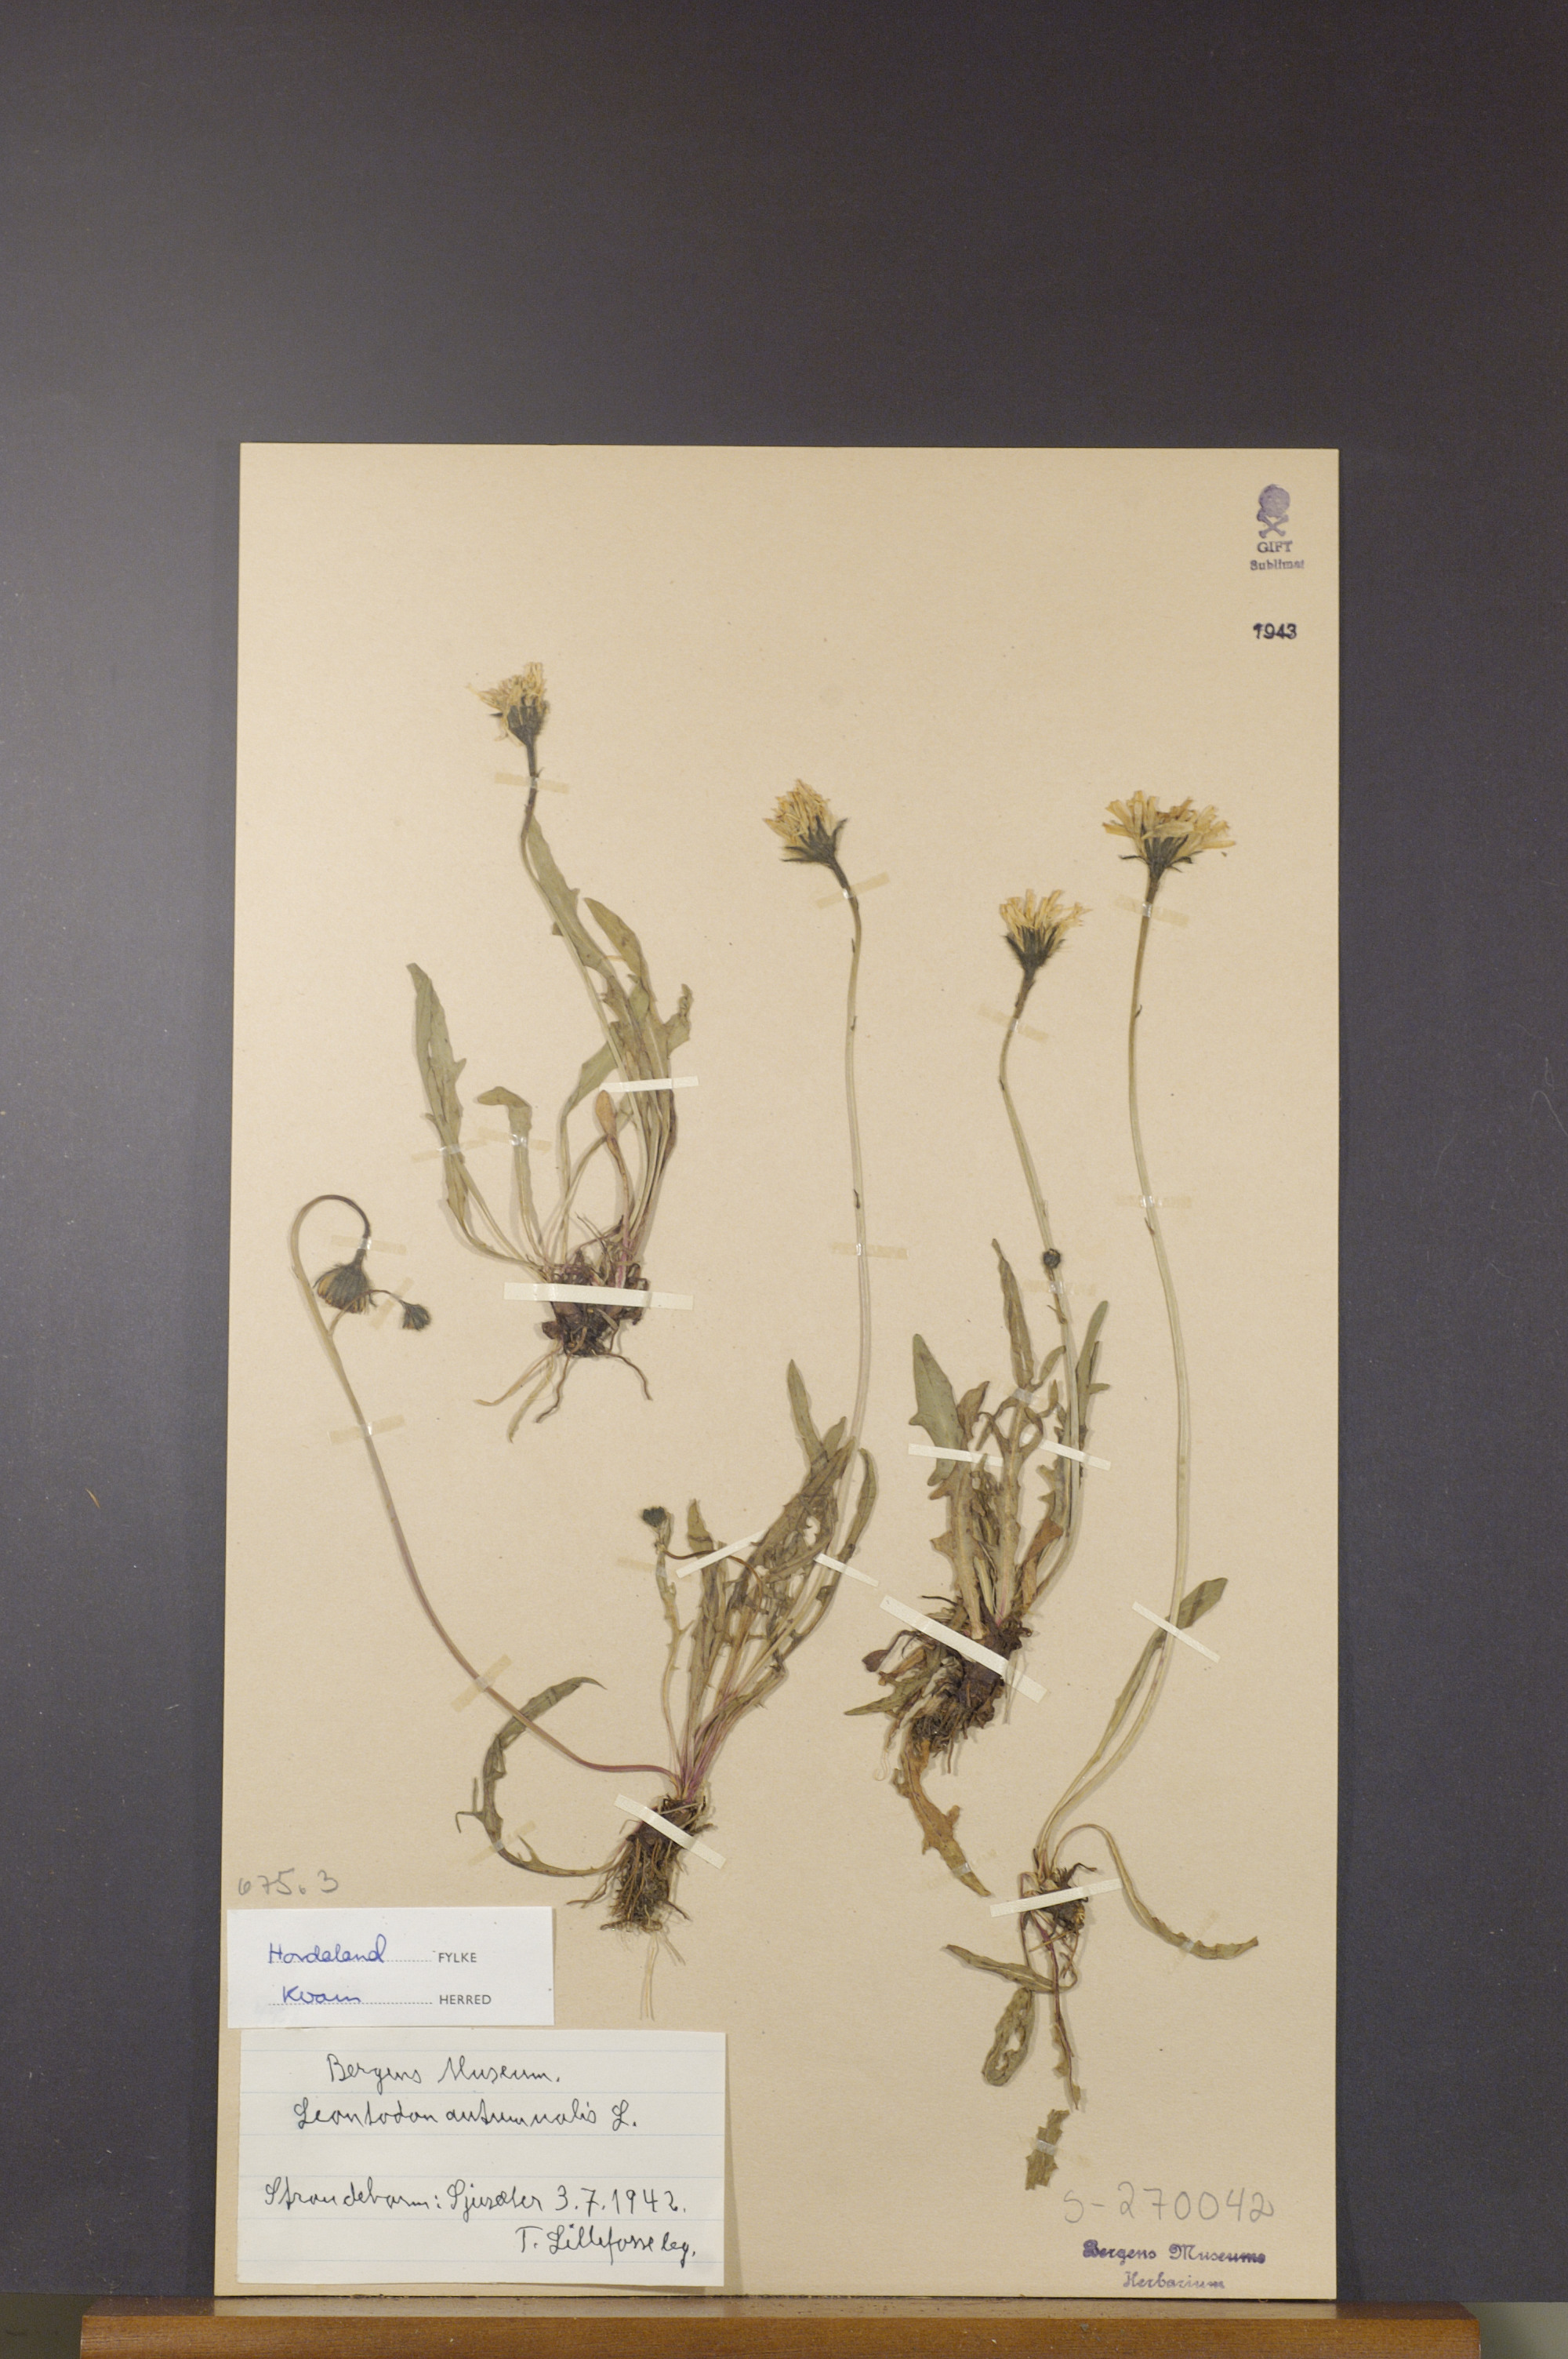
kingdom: Plantae
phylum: Tracheophyta
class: Magnoliopsida
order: Asterales
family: Asteraceae
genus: Scorzoneroides
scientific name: Scorzoneroides autumnalis
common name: Autumn hawkbit
